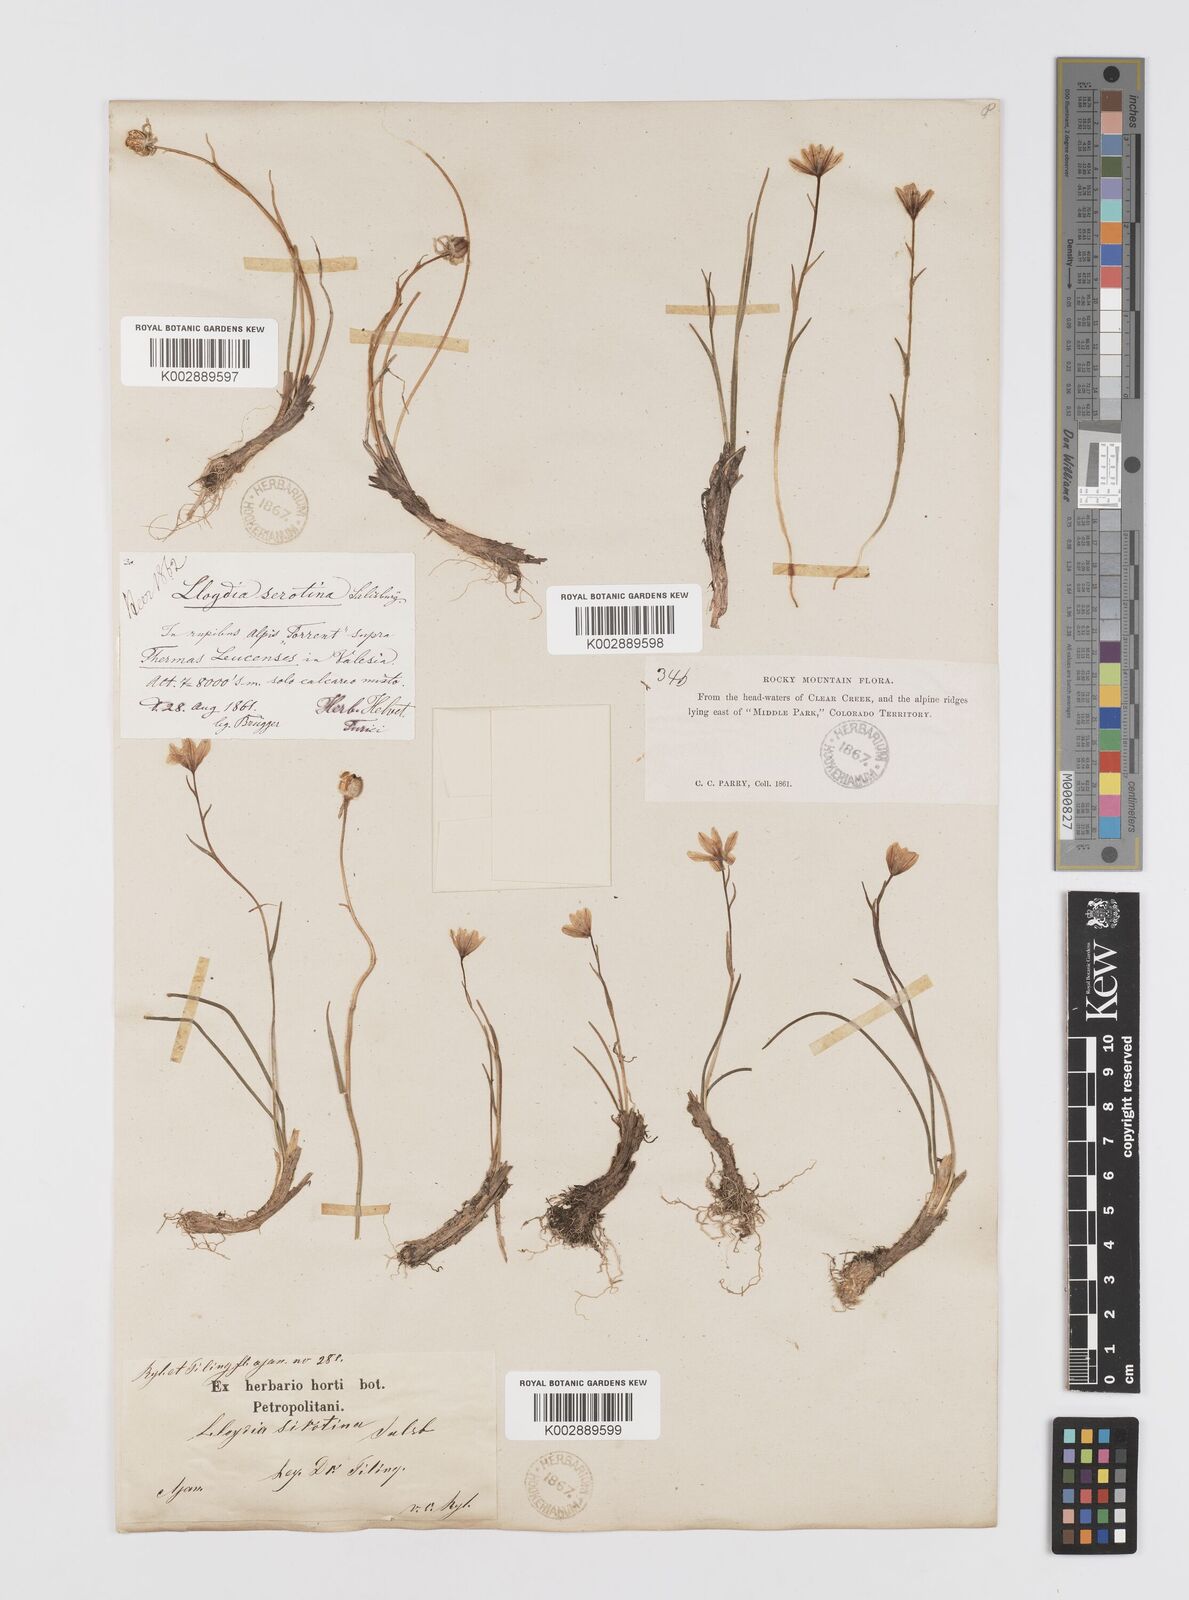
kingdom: Plantae
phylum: Tracheophyta
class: Liliopsida
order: Liliales
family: Liliaceae
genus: Gagea
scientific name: Gagea serotina
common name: Snowdon lily
